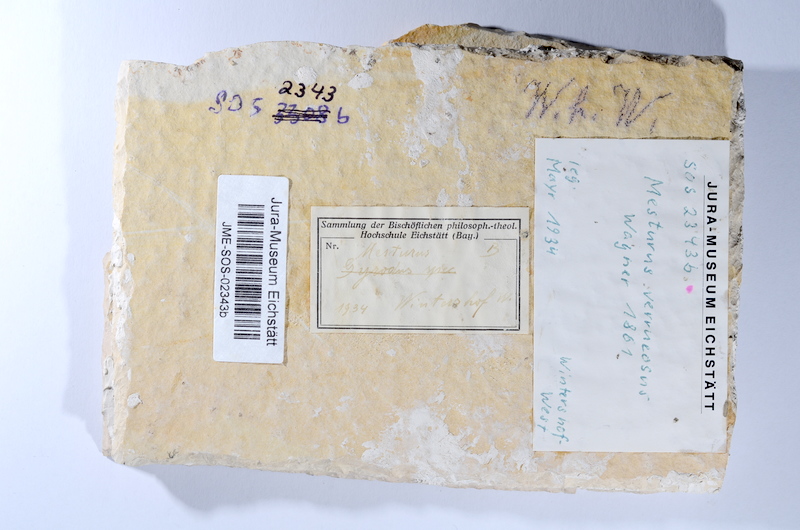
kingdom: Animalia
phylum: Chordata
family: Mesturidae
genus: Mesturus
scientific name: Mesturus verrucosus
